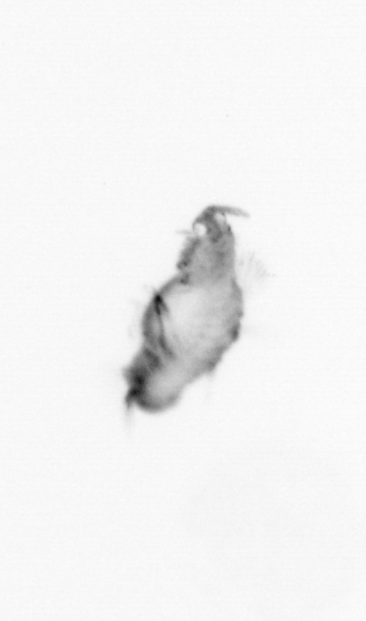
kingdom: Animalia
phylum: Annelida
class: Polychaeta
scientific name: Polychaeta
